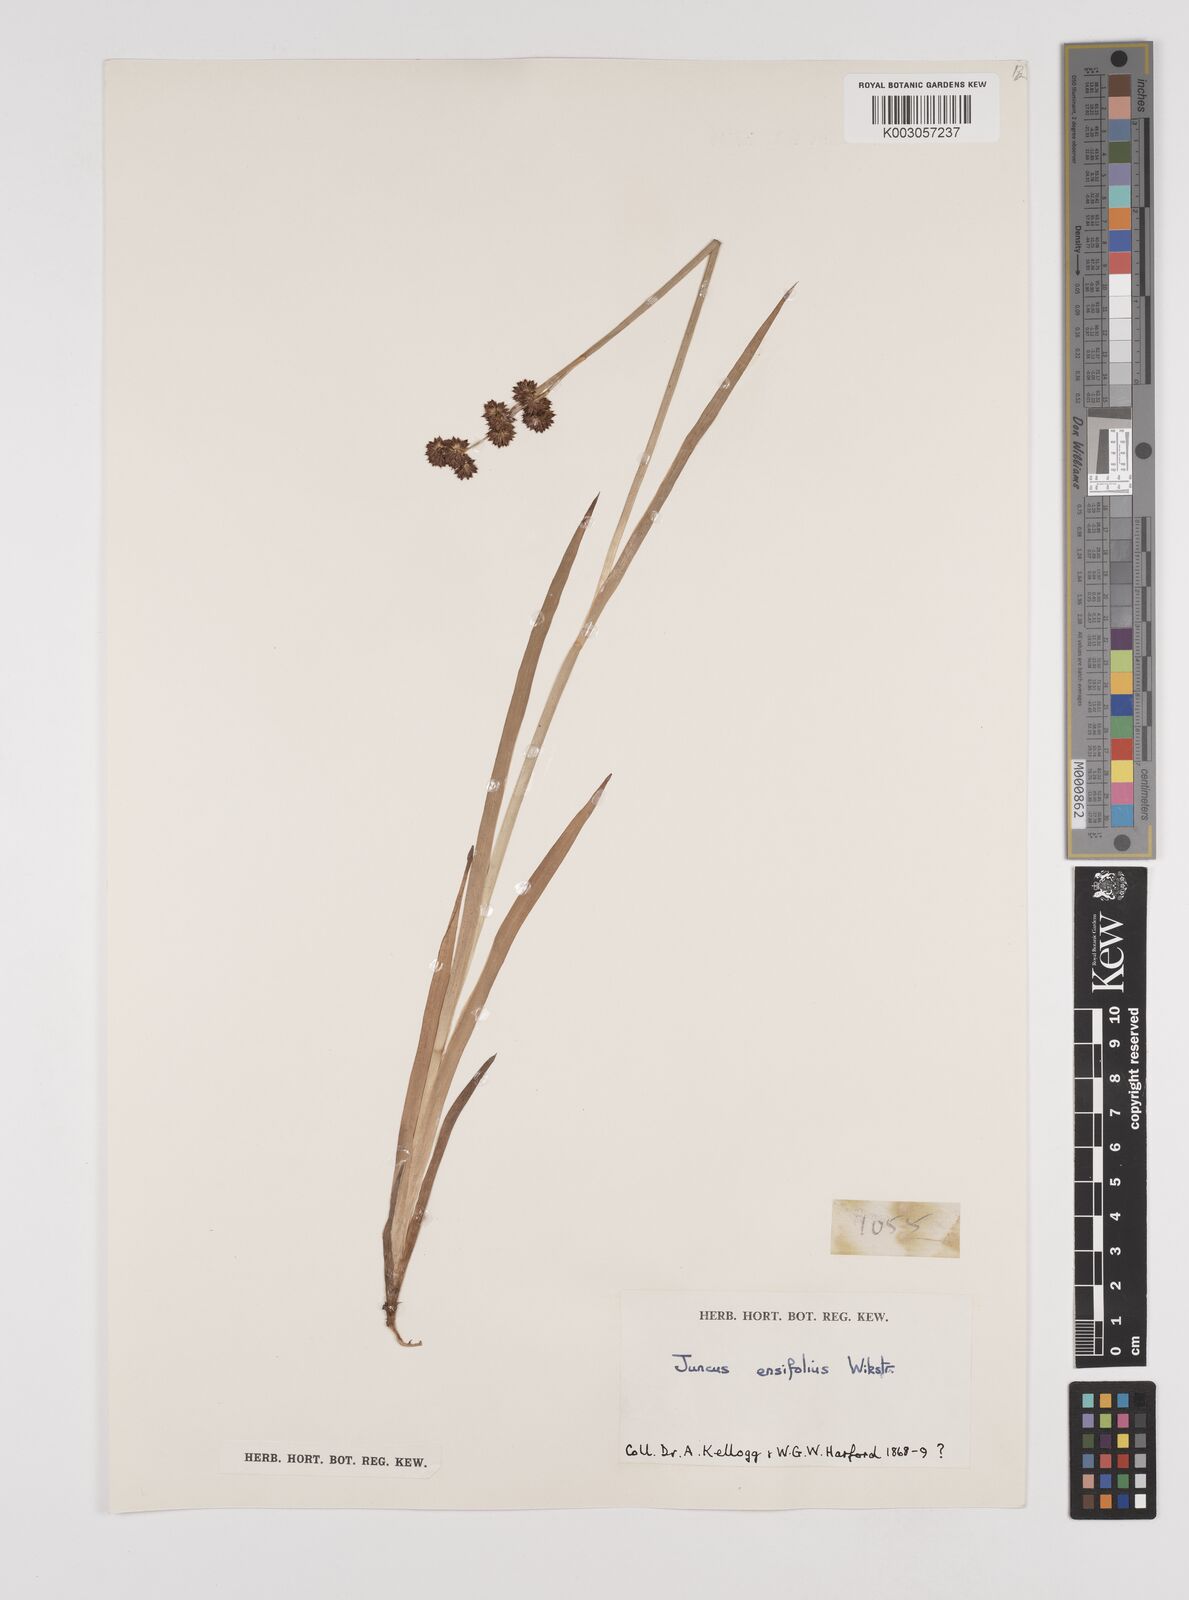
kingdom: Plantae
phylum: Tracheophyta
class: Liliopsida
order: Poales
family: Juncaceae
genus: Juncus
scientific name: Juncus ensifolius
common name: Sword-leaved rush
